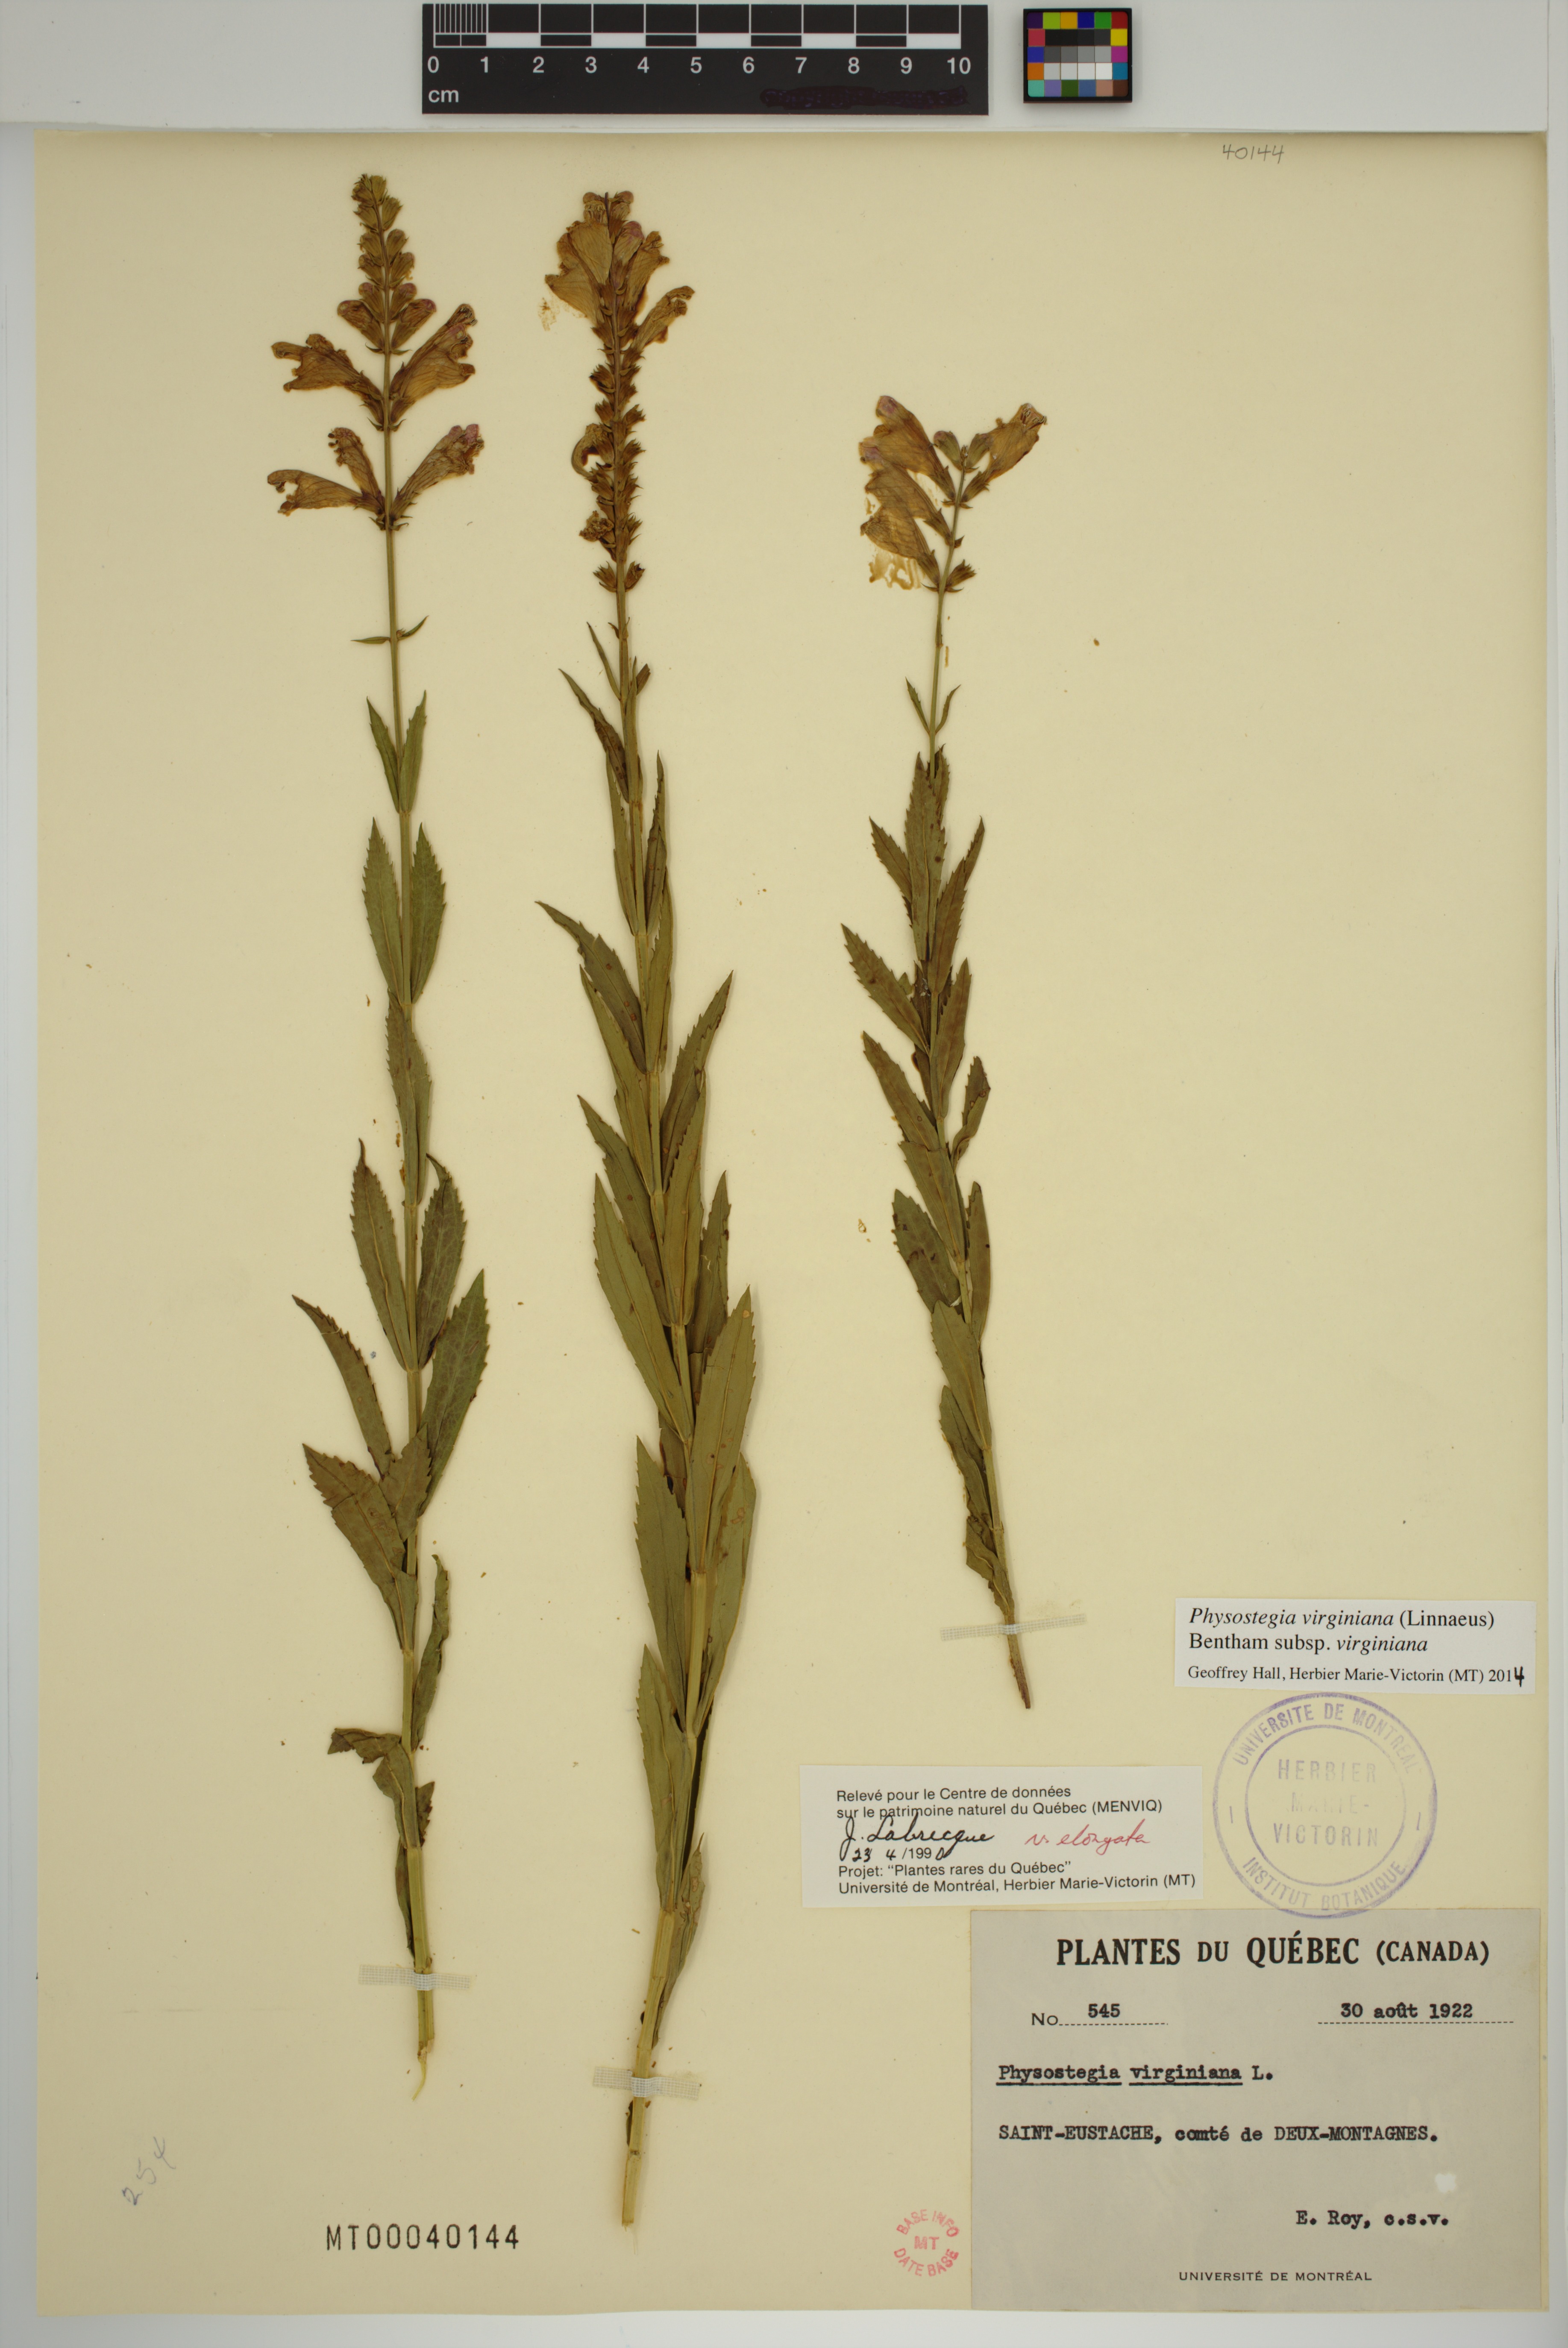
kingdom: Plantae
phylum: Tracheophyta
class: Magnoliopsida
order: Lamiales
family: Lamiaceae
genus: Physostegia
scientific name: Physostegia virginiana
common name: Obedient-plant
